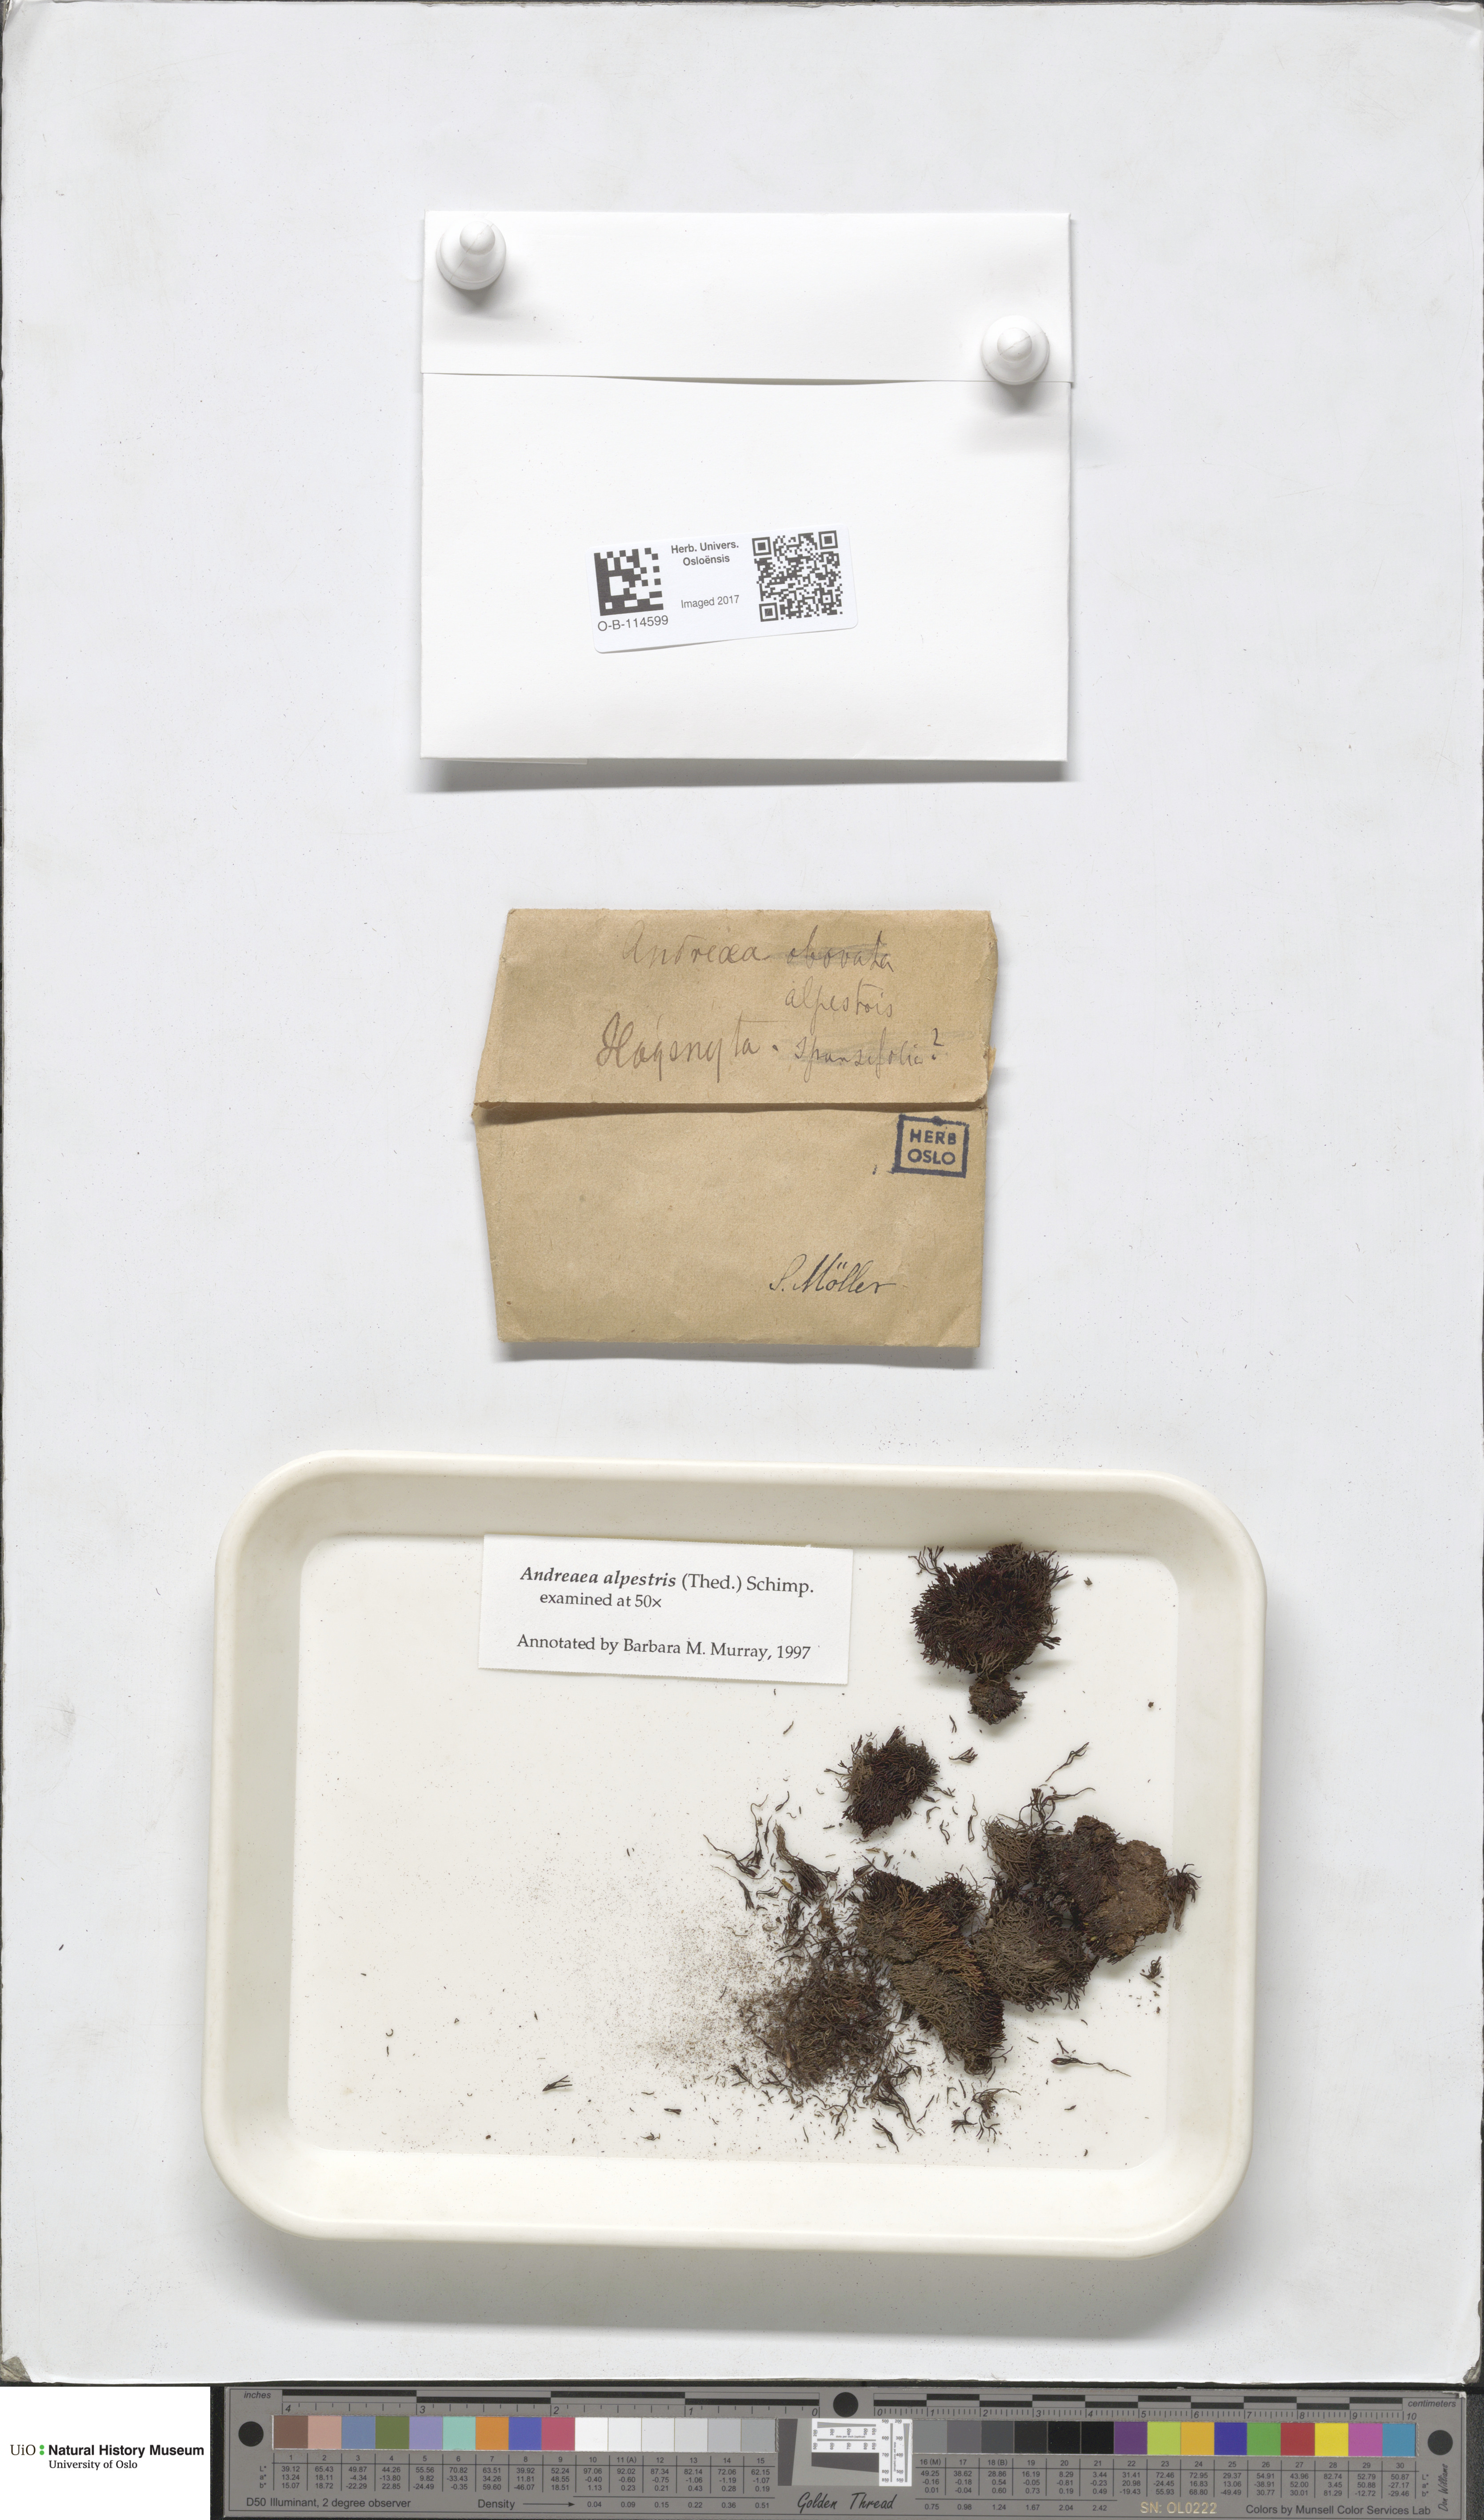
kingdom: Plantae
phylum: Bryophyta
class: Andreaeopsida
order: Andreaeales
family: Andreaeaceae
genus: Andreaea
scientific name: Andreaea alpestris
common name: Slender rock-moss
